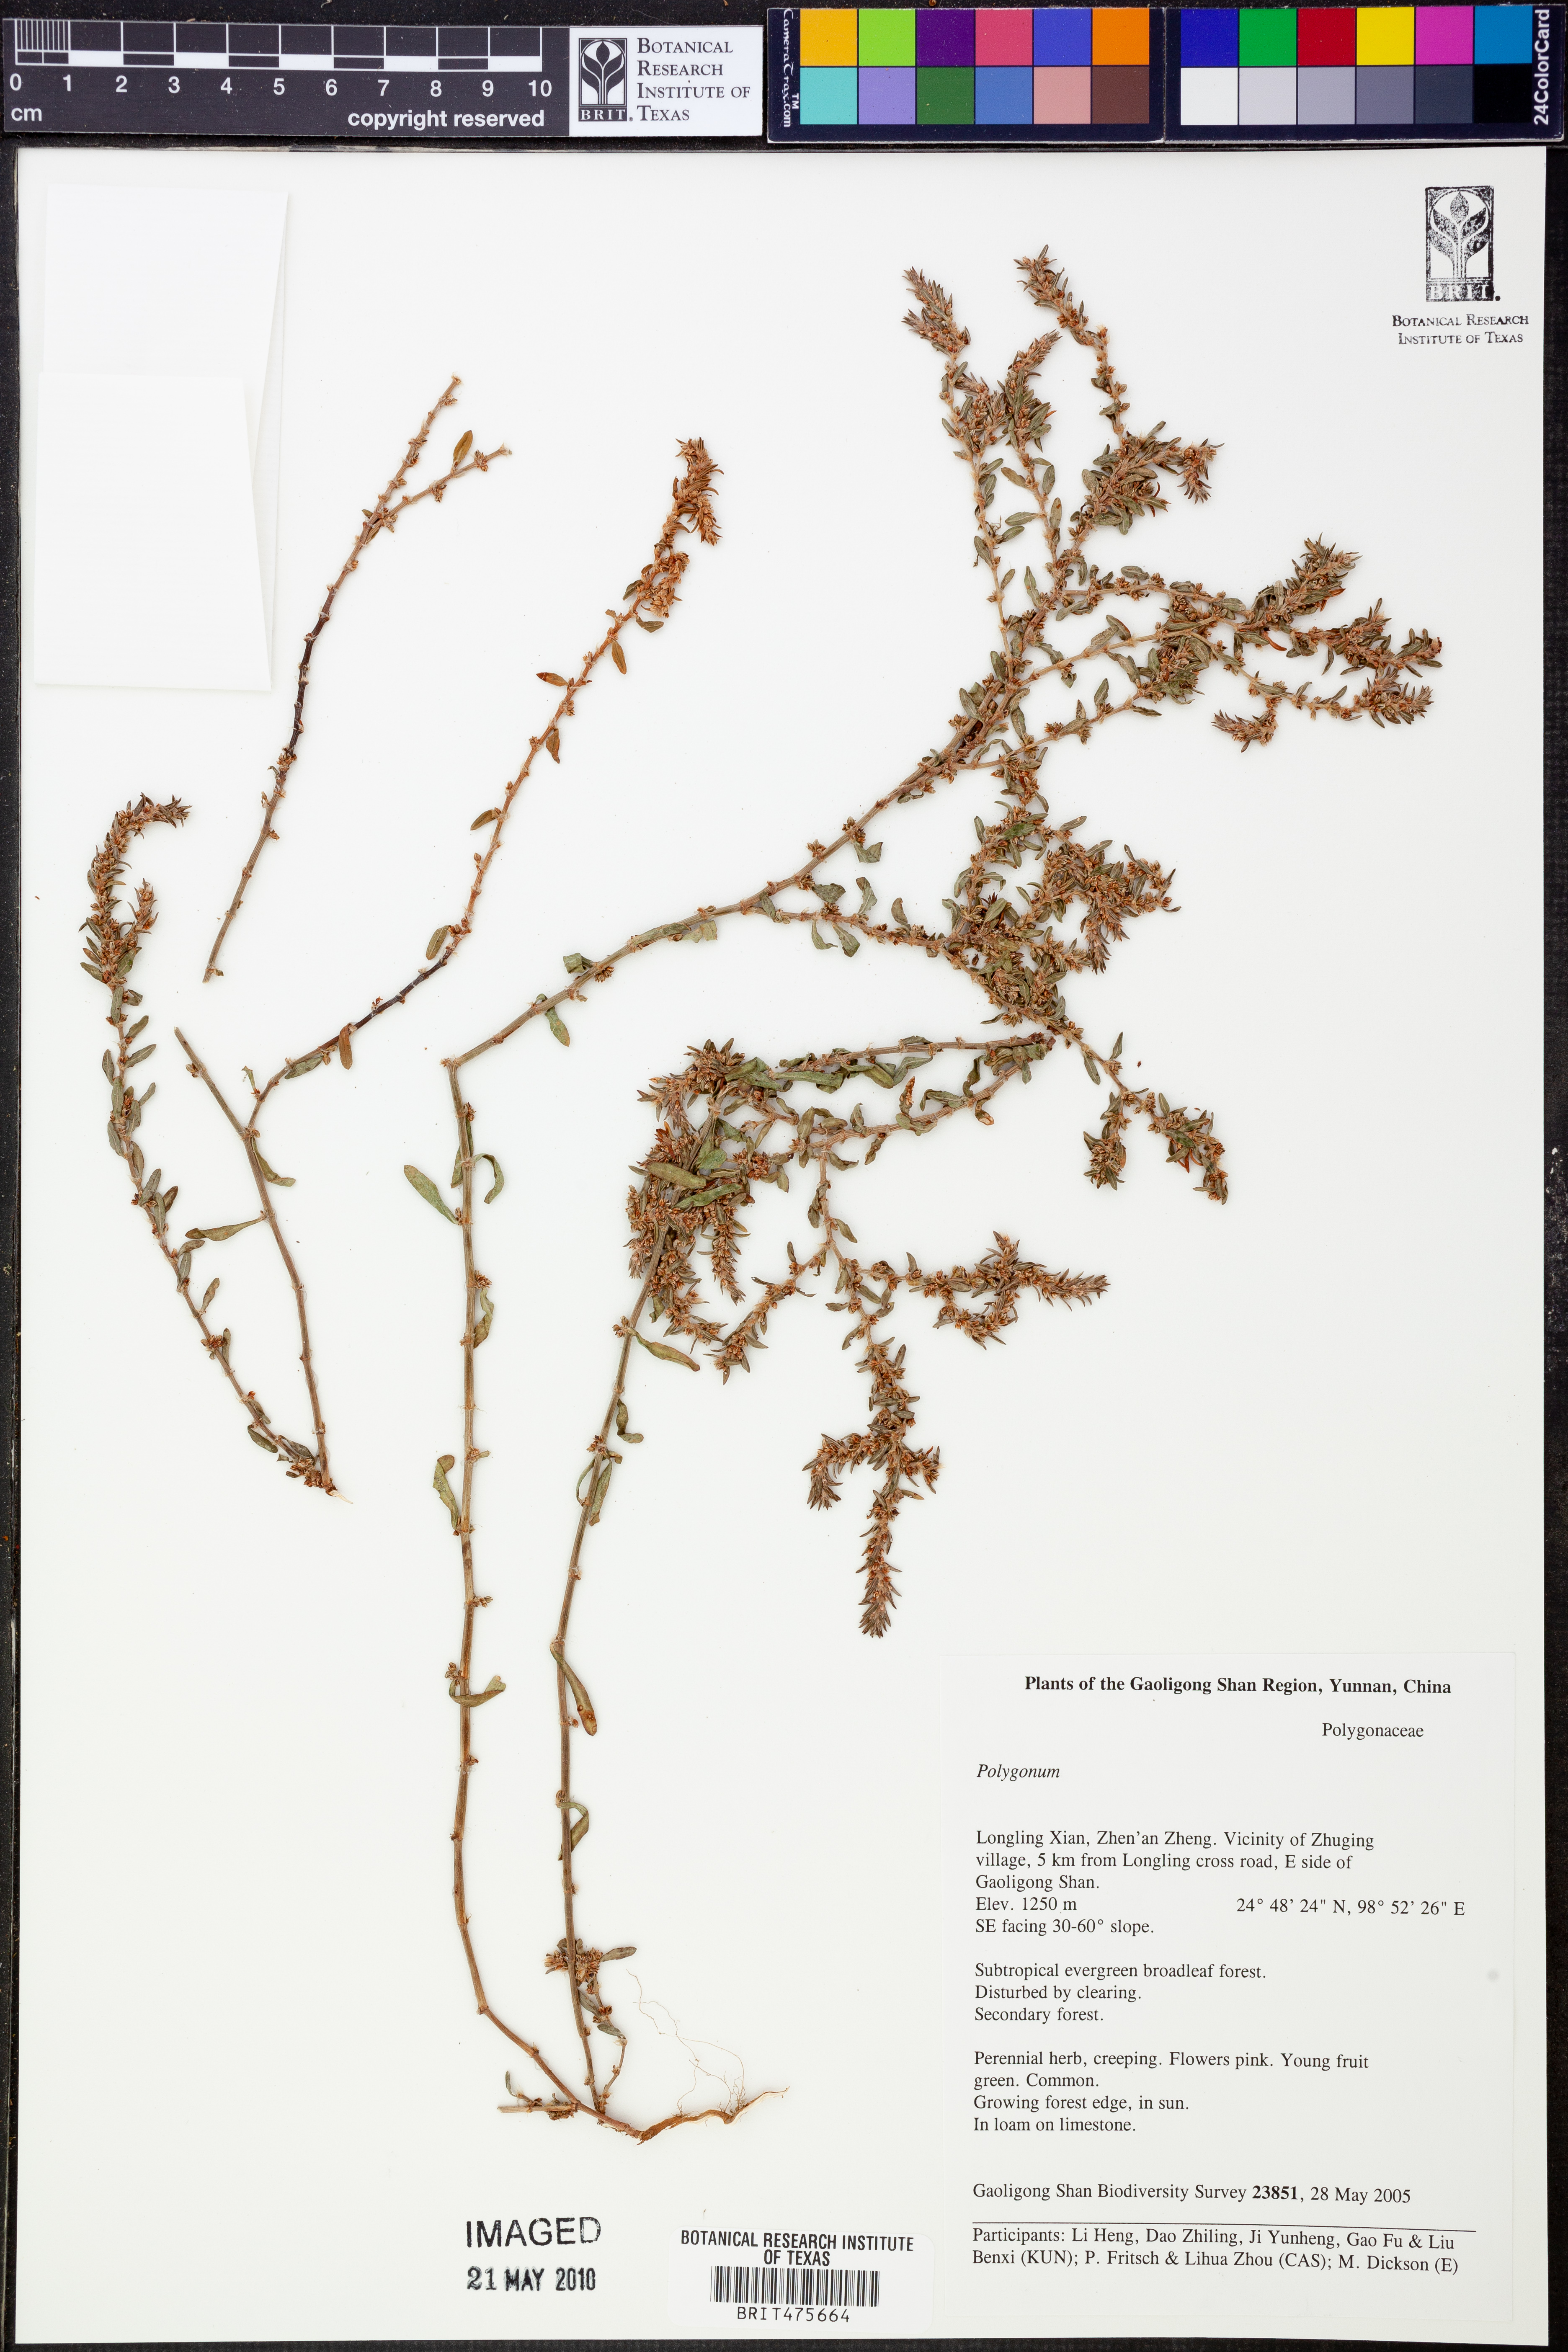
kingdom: Plantae
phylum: Tracheophyta
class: Magnoliopsida
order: Caryophyllales
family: Polygonaceae
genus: Polygonum
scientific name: Polygonum
